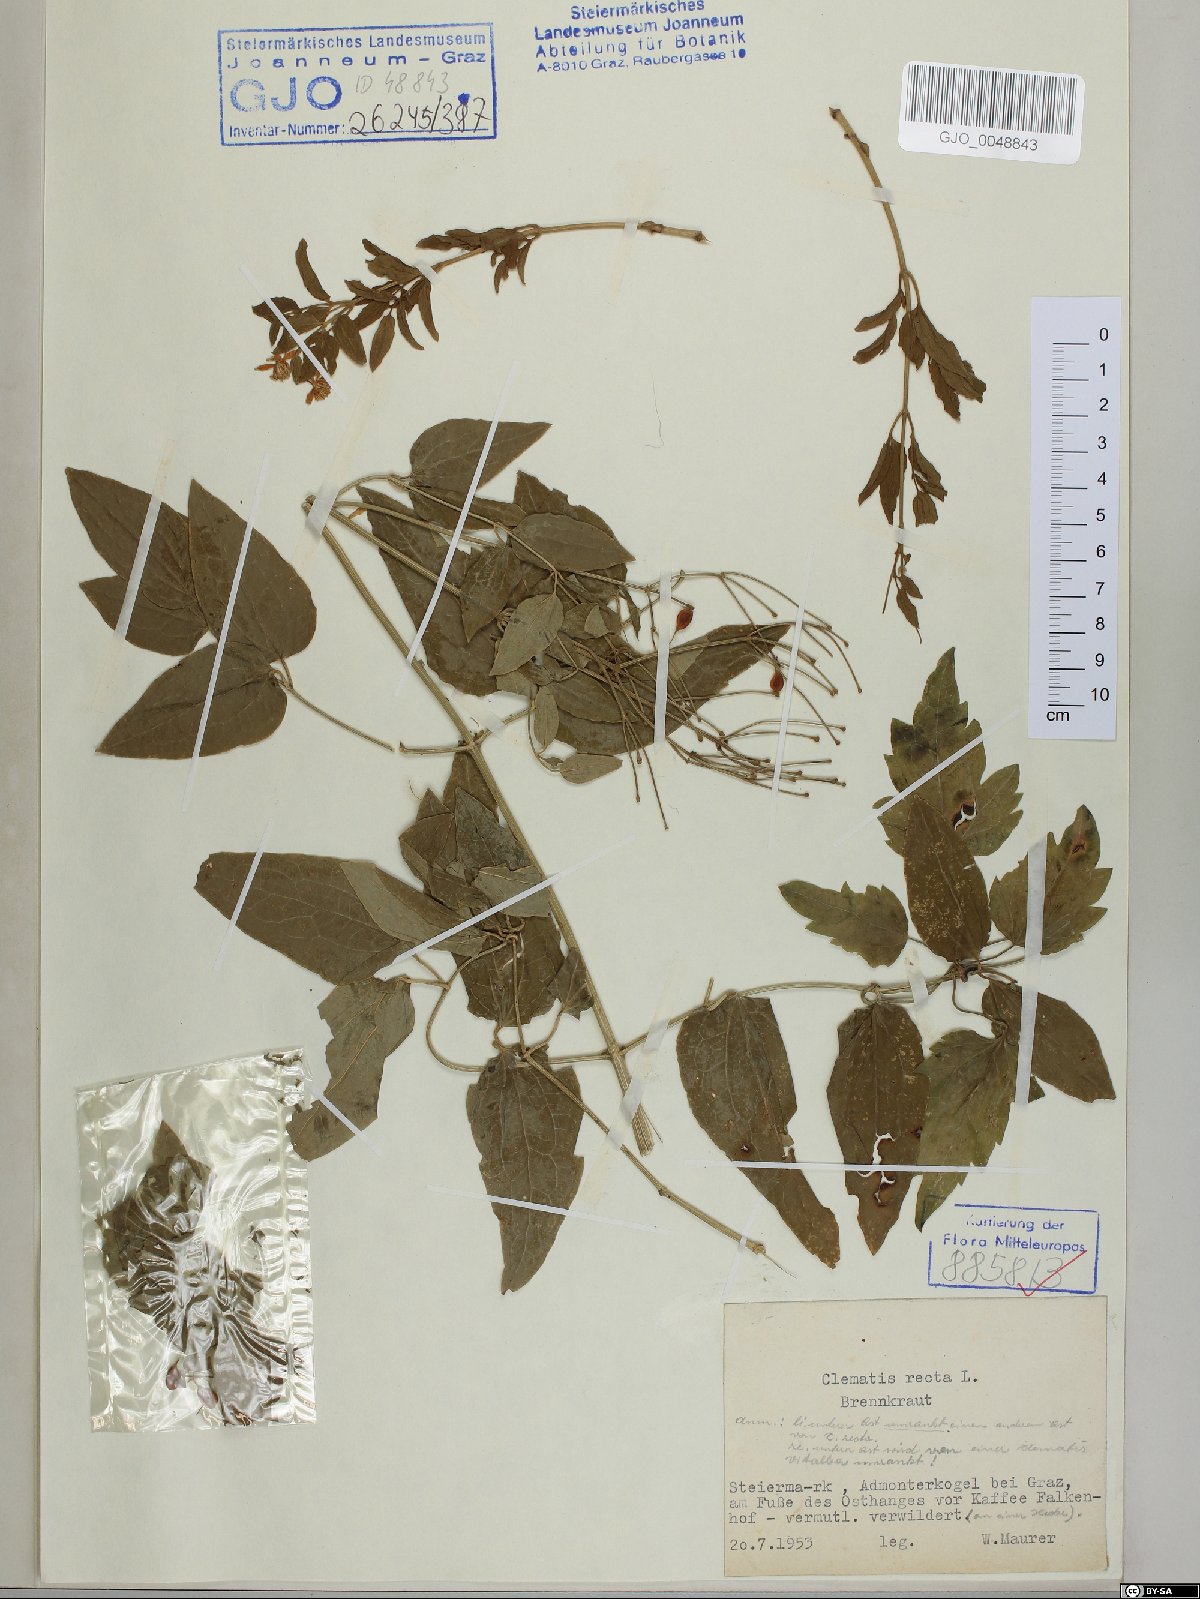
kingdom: Plantae
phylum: Tracheophyta
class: Magnoliopsida
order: Ranunculales
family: Ranunculaceae
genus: Clematis
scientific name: Clematis recta
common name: Ground clematis
